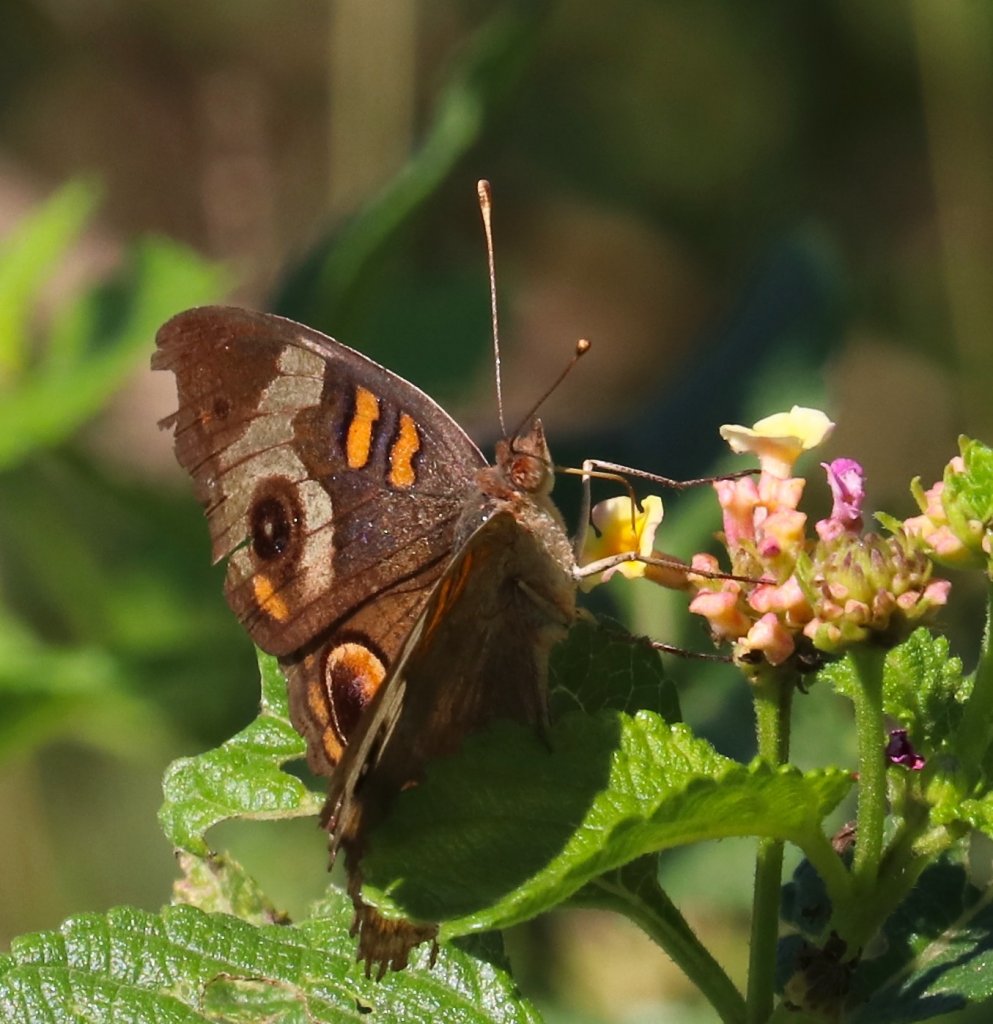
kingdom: Animalia
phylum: Arthropoda
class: Insecta
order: Lepidoptera
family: Nymphalidae
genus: Junonia
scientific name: Junonia coenia
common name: Common Buckeye
